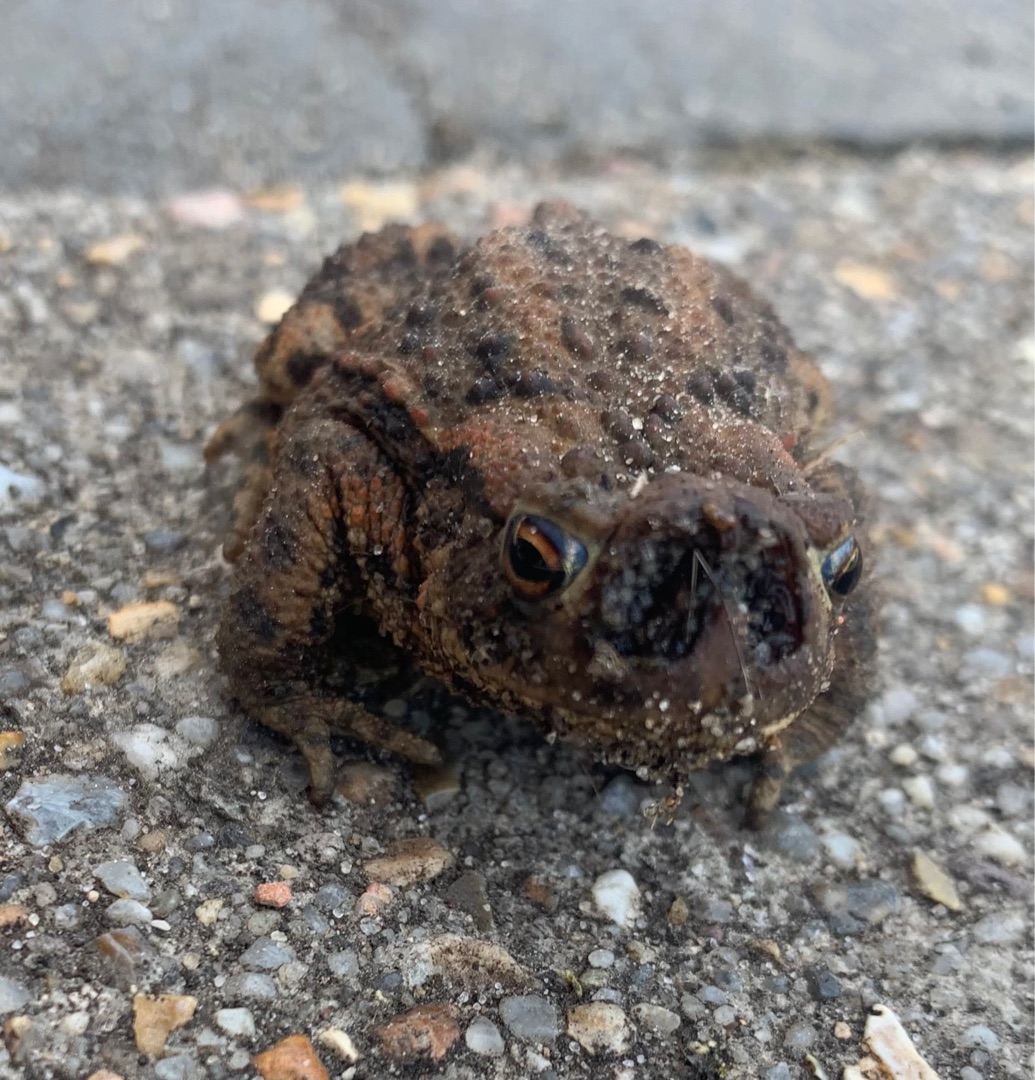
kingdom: Animalia
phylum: Chordata
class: Amphibia
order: Anura
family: Bufonidae
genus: Bufo
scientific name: Bufo bufo
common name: Skrubtudse
